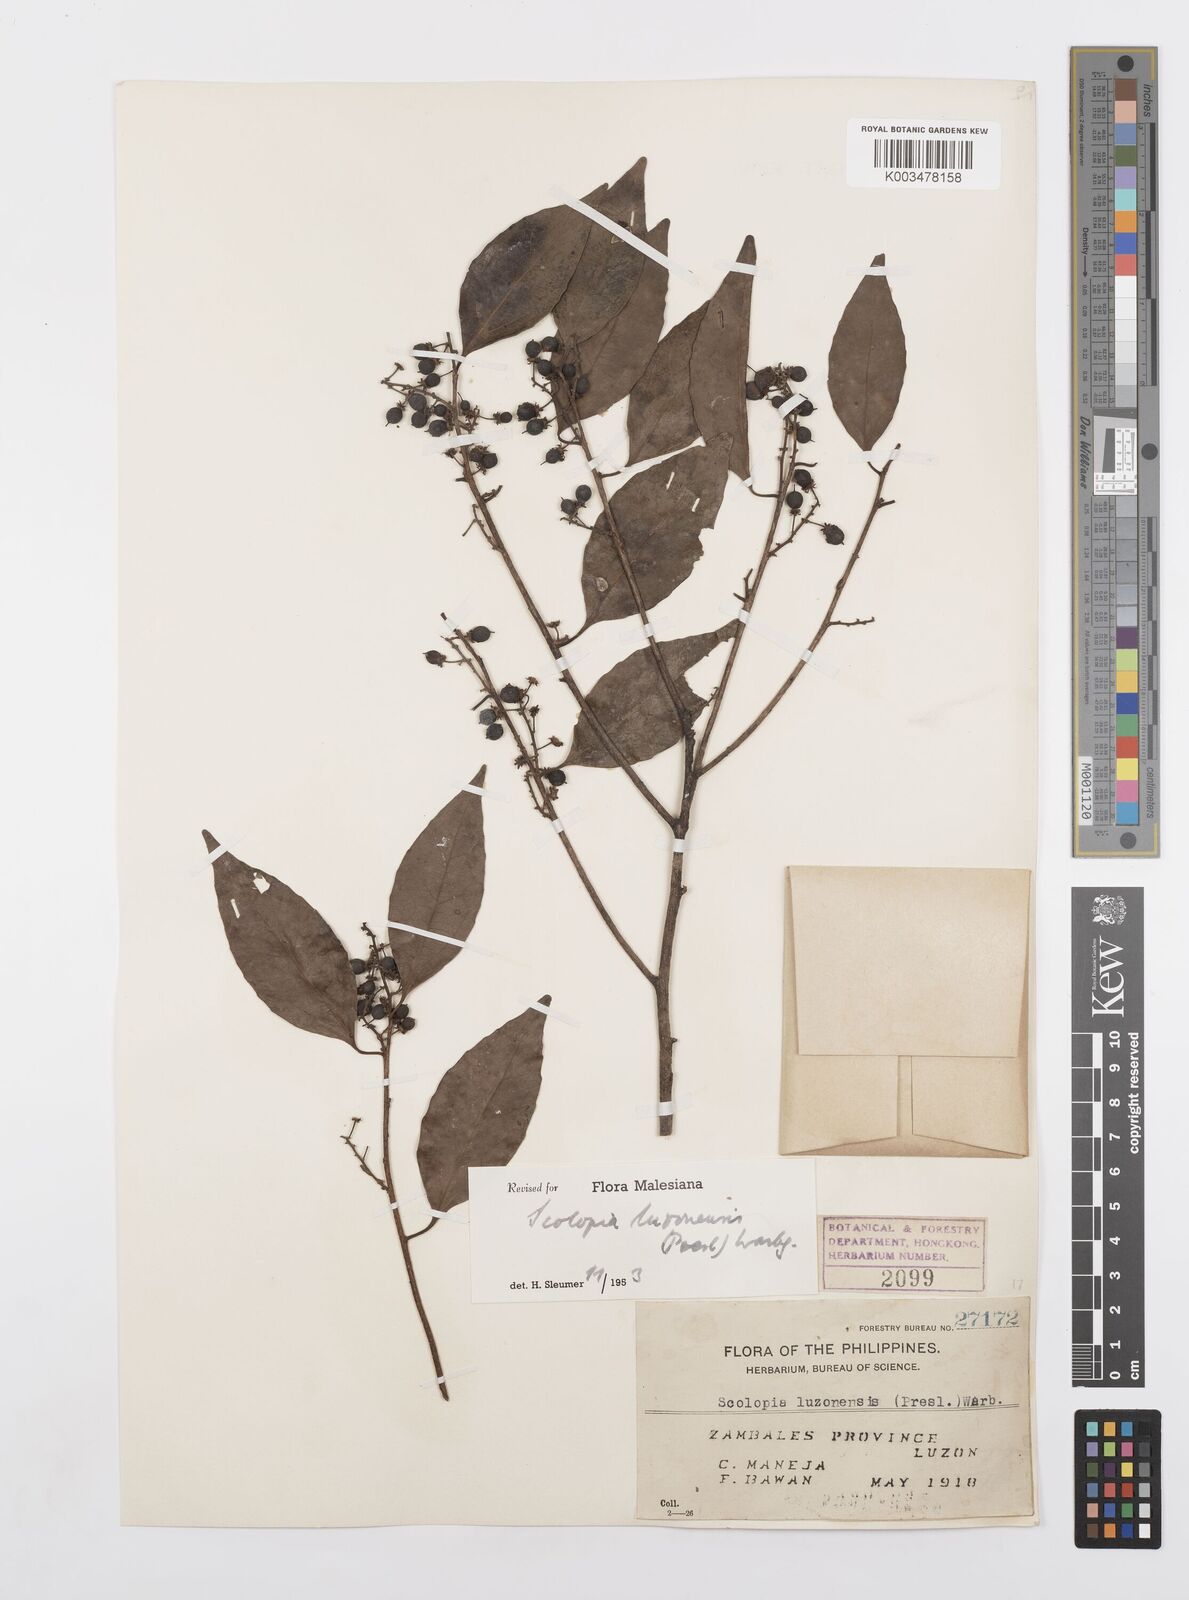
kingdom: Plantae
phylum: Tracheophyta
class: Magnoliopsida
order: Malpighiales
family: Salicaceae
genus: Scolopia
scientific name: Scolopia luzonensis
